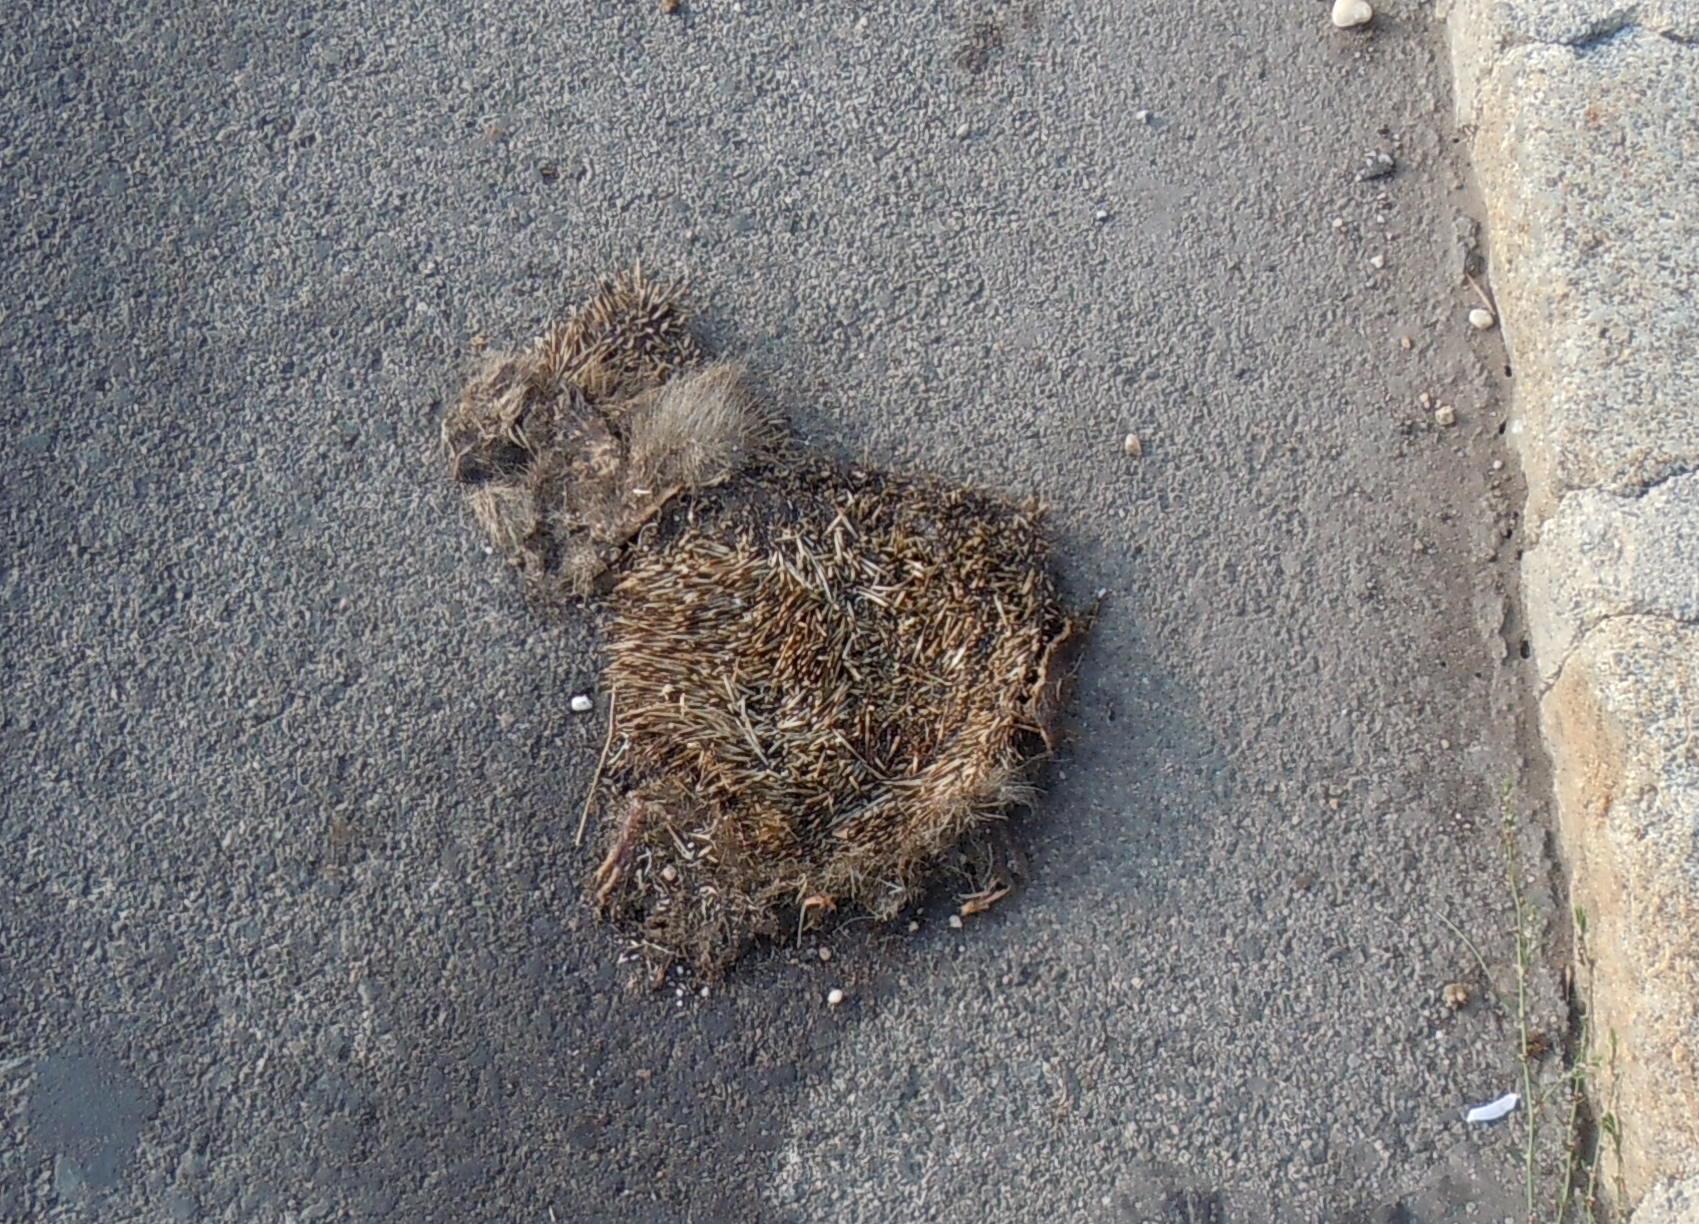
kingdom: Animalia
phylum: Chordata
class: Mammalia
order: Erinaceomorpha
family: Erinaceidae
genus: Erinaceus
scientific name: Erinaceus
